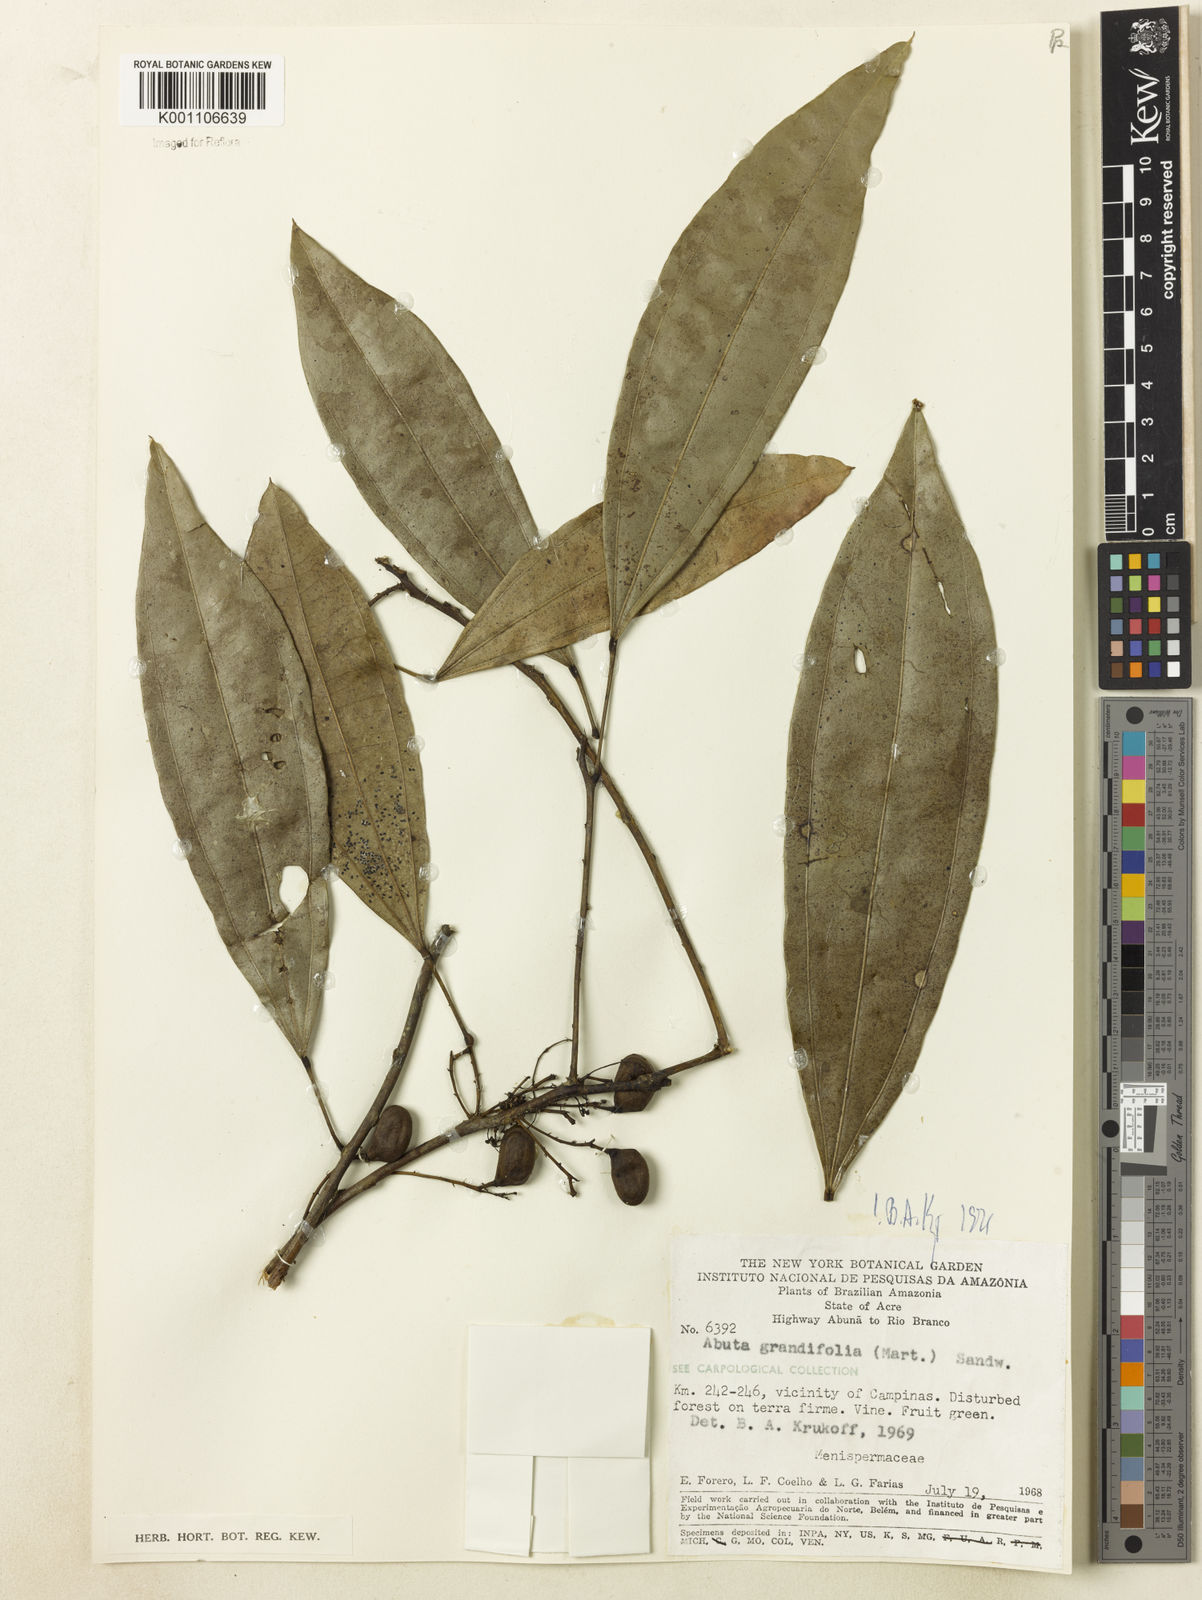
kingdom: Plantae
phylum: Tracheophyta
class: Magnoliopsida
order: Ranunculales
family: Menispermaceae
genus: Abuta
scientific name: Abuta grandifolia
